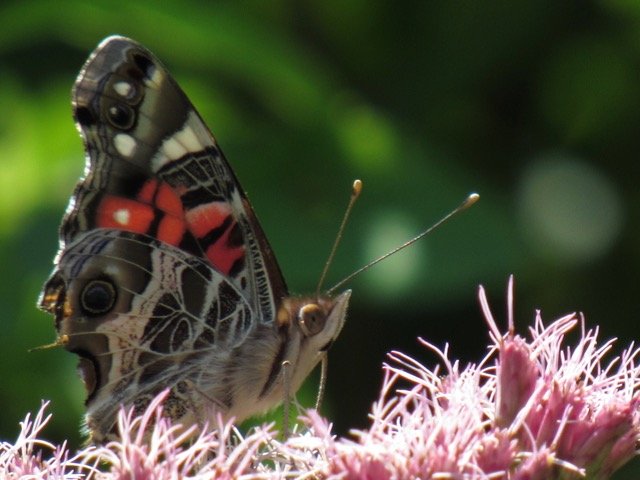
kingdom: Animalia
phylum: Arthropoda
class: Insecta
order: Lepidoptera
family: Nymphalidae
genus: Vanessa
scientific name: Vanessa virginiensis
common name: American Lady
